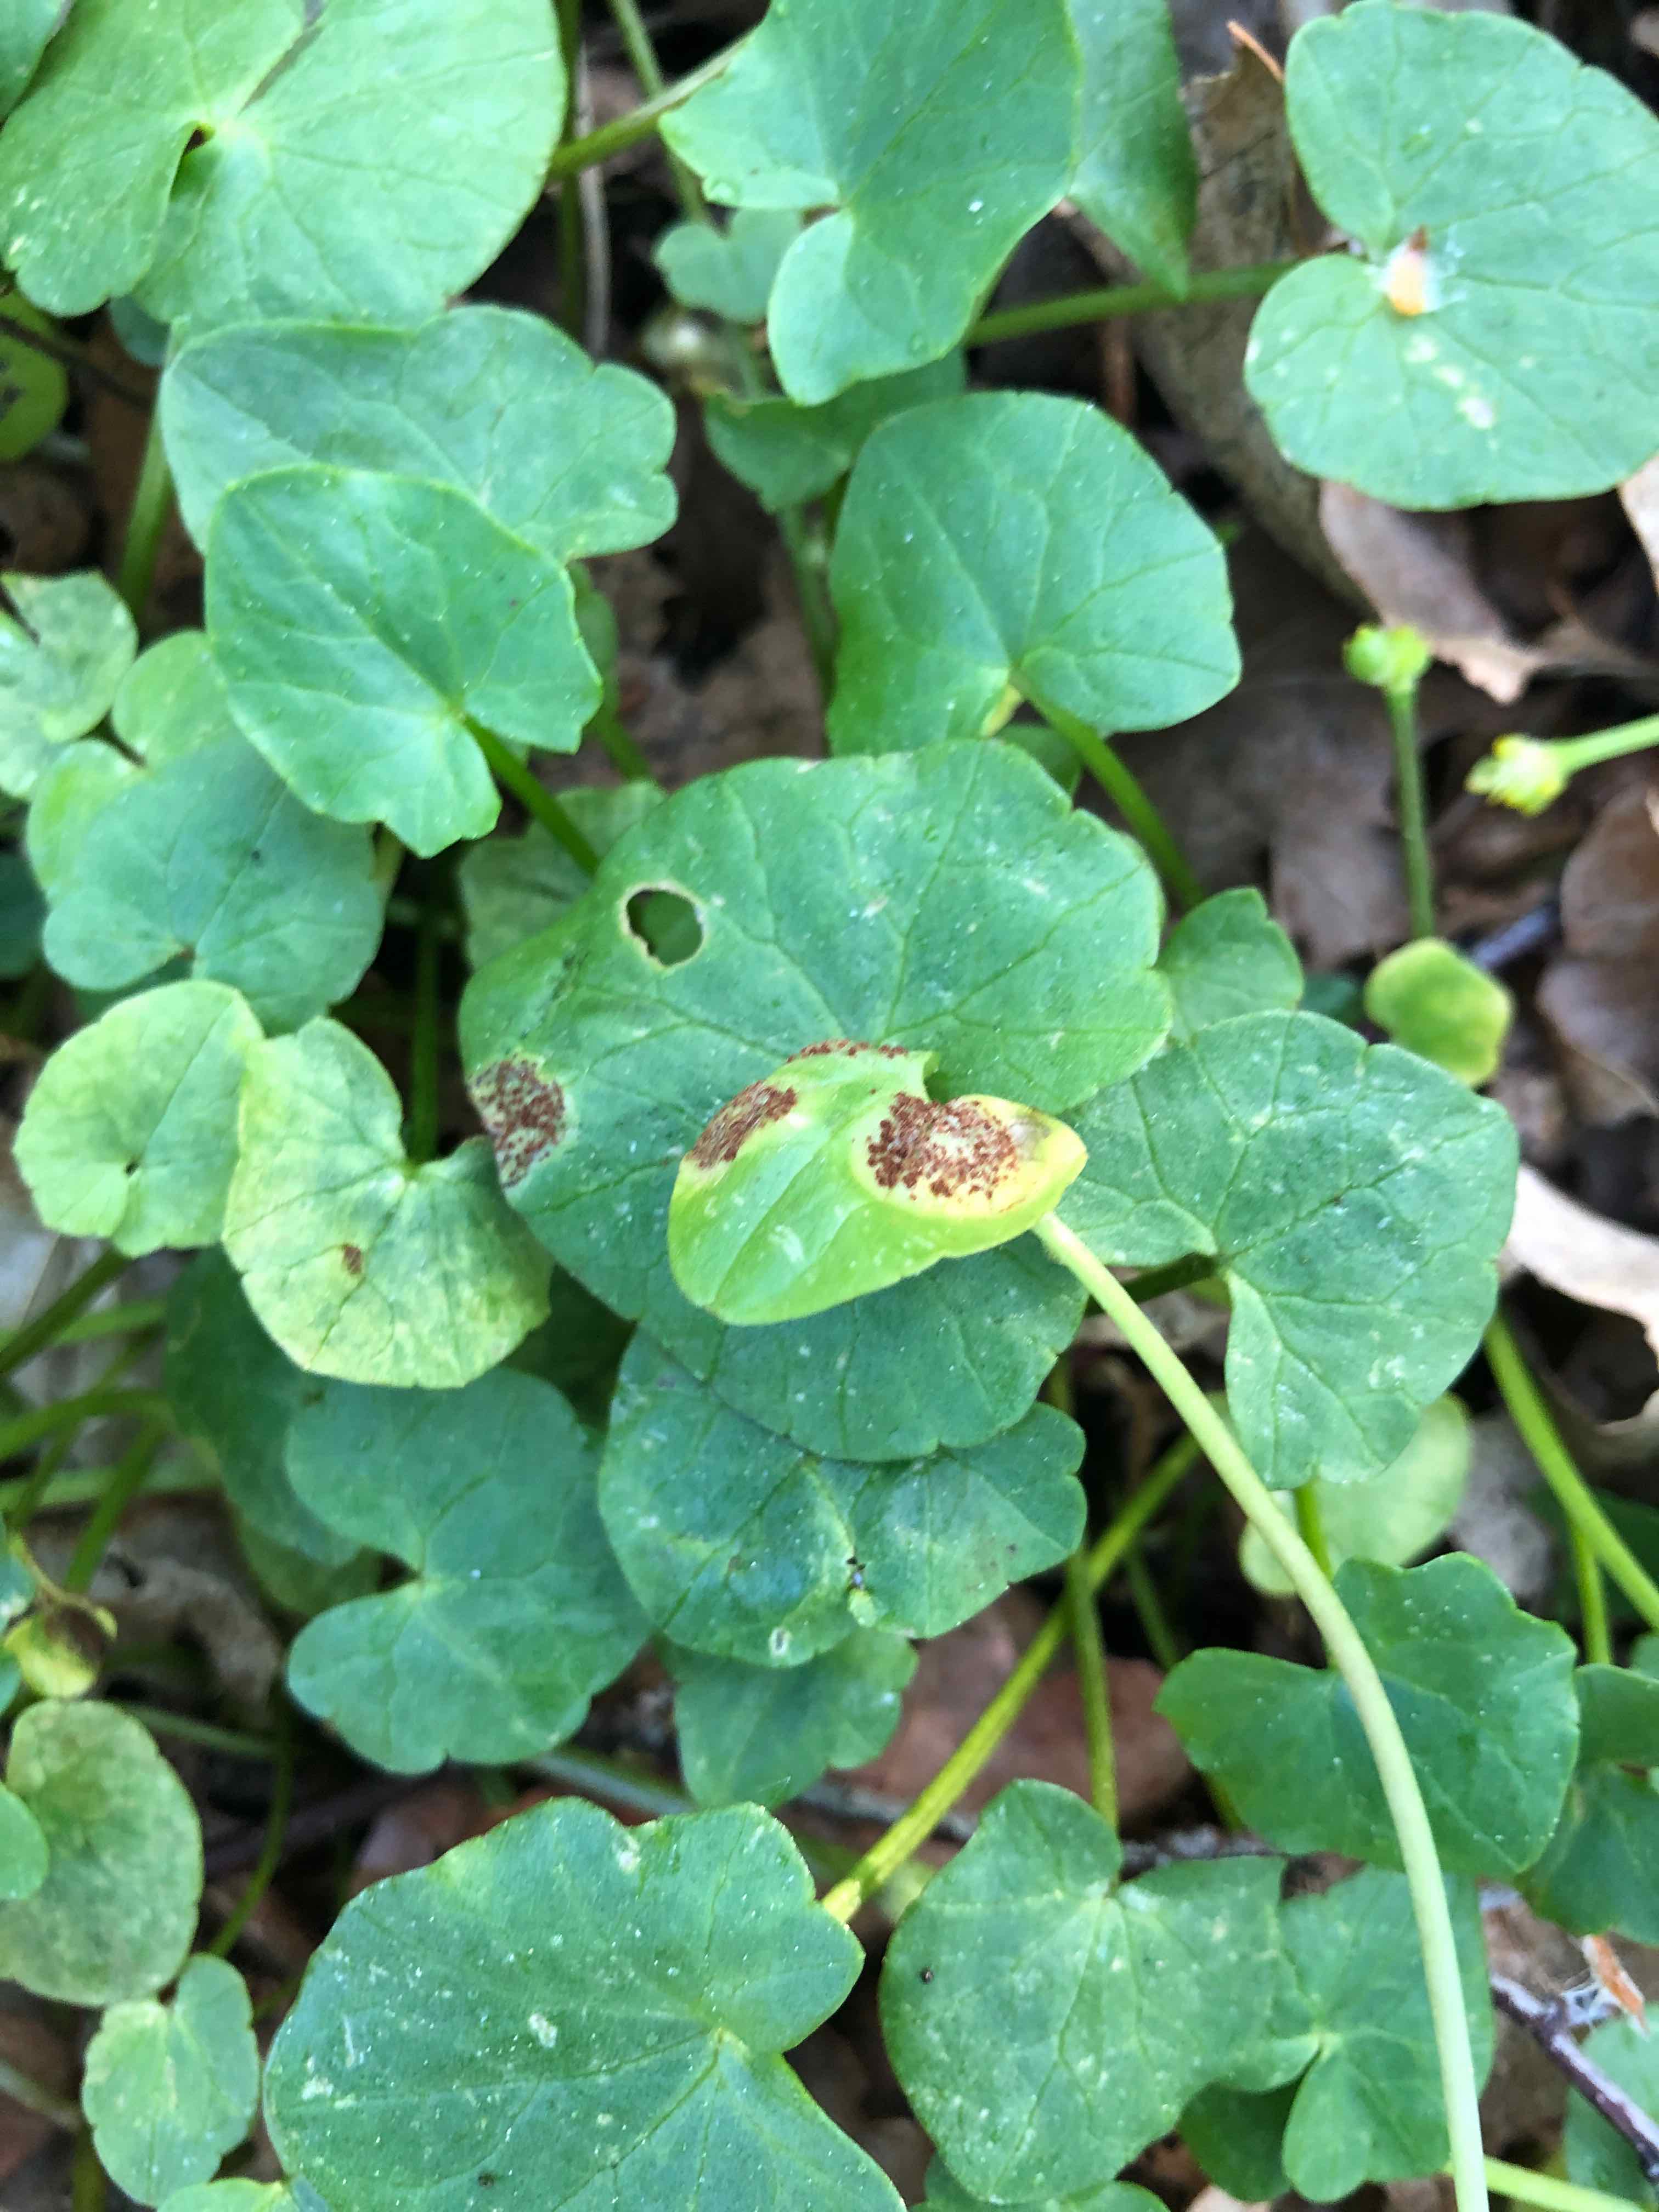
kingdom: Fungi
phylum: Basidiomycota
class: Pucciniomycetes
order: Pucciniales
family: Pucciniaceae
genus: Uromyces
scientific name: Uromyces ficariae
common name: vorterod-encellerust
